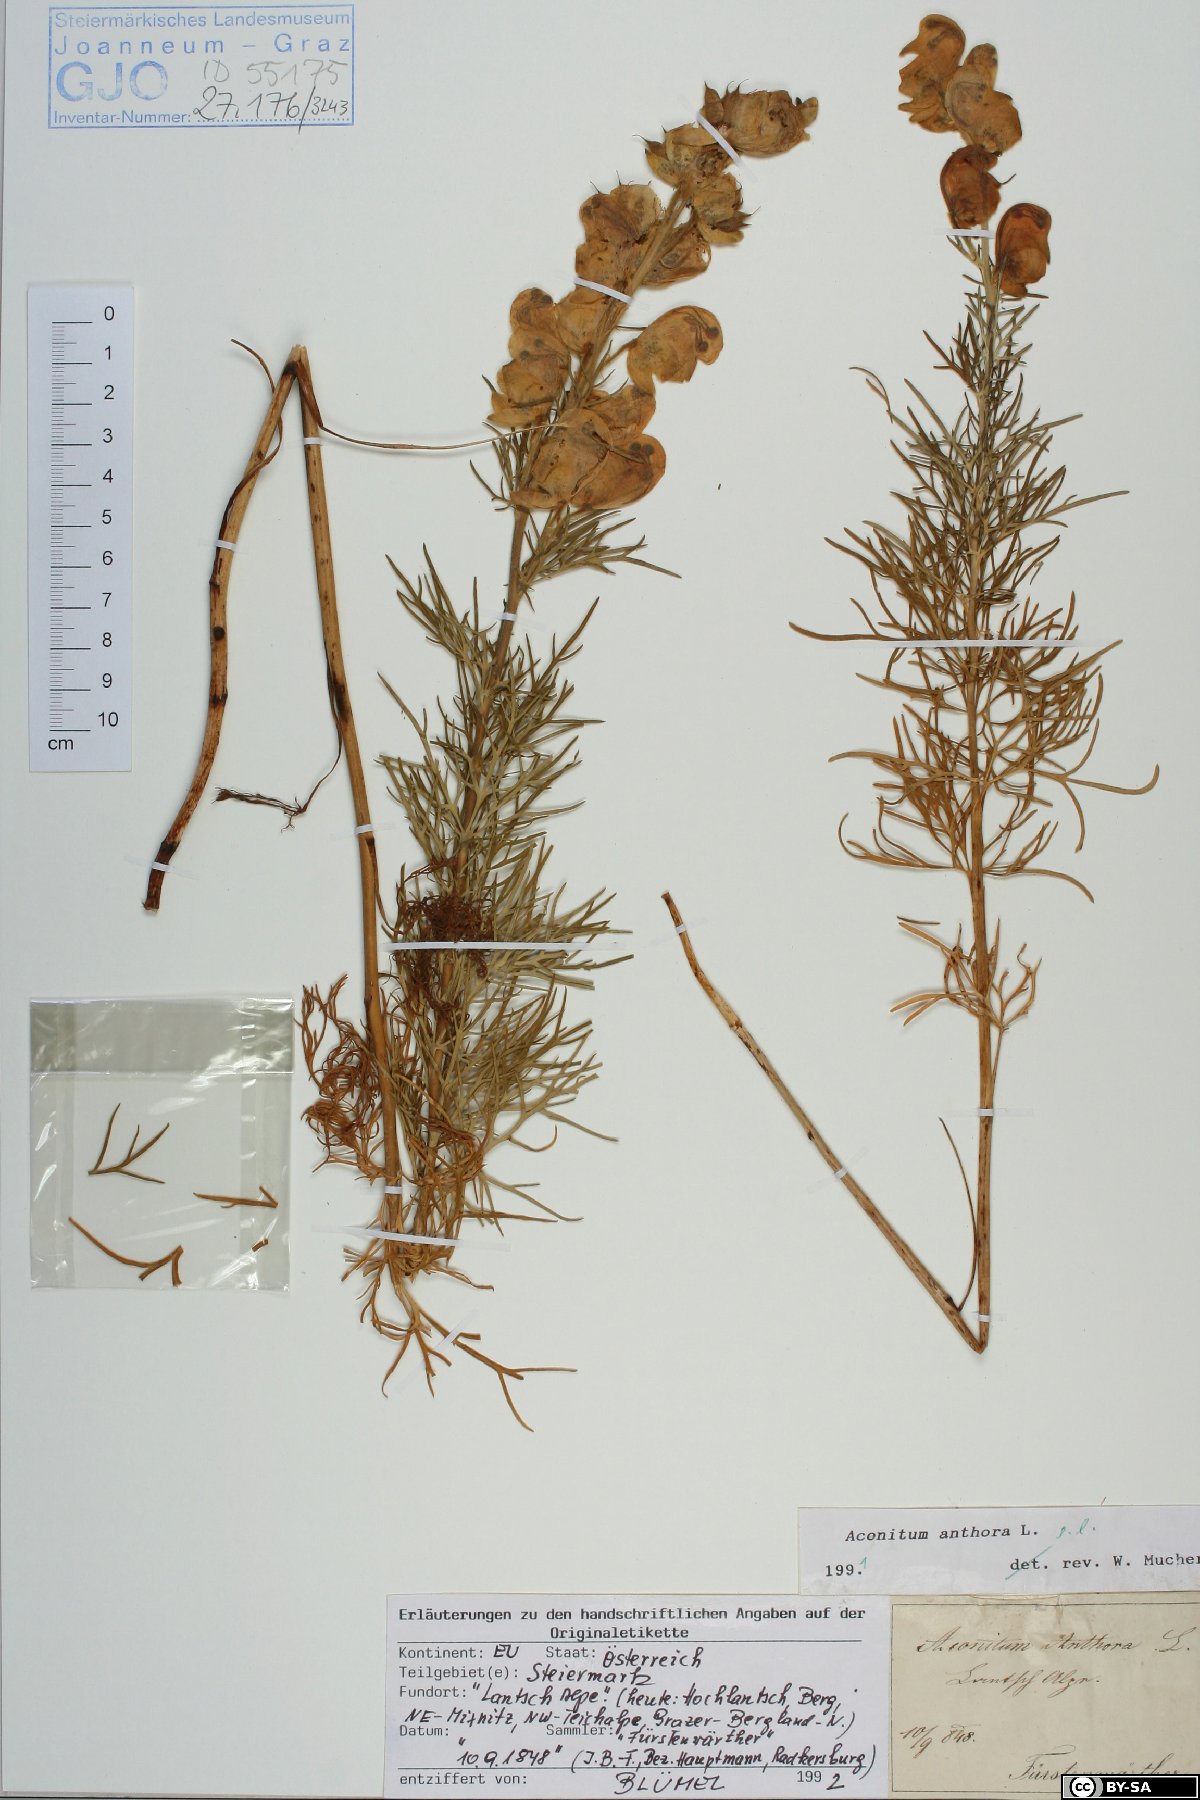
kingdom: Plantae
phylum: Tracheophyta
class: Magnoliopsida
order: Ranunculales
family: Ranunculaceae
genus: Aconitum
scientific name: Aconitum anthora
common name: Yellow monkshood
